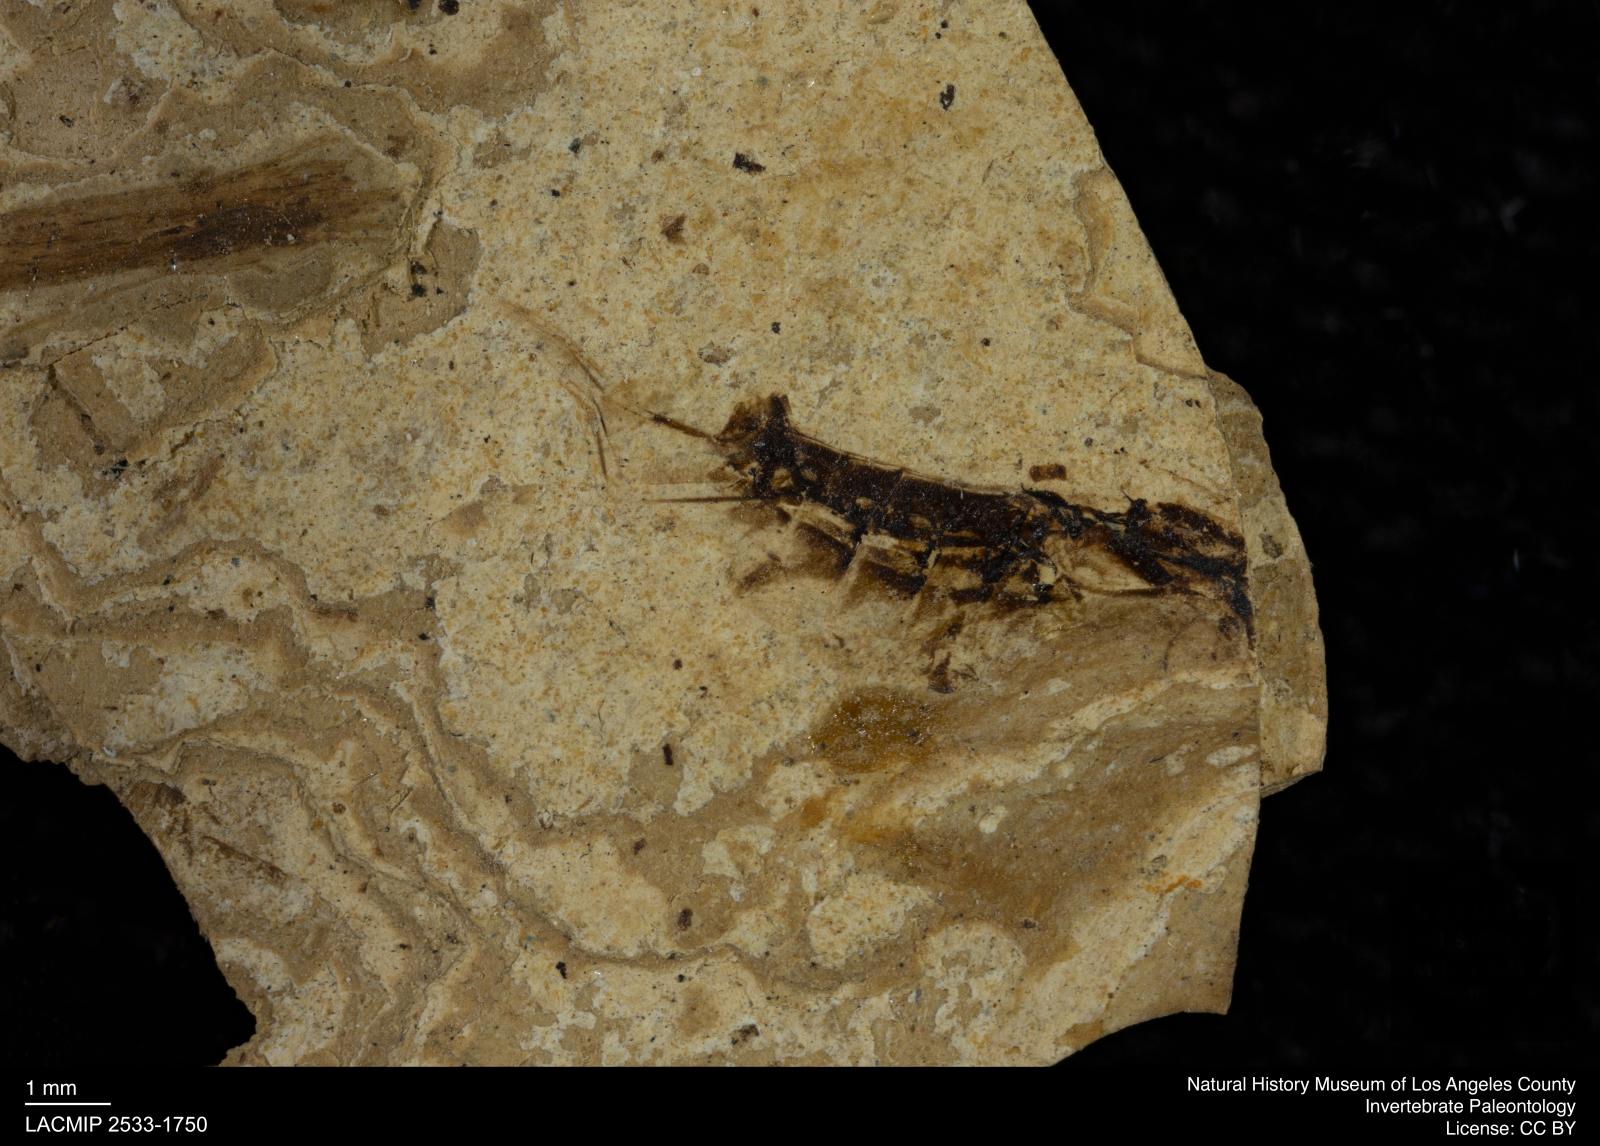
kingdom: Animalia
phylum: Arthropoda
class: Insecta
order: Hemiptera
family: Notonectidae
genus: Notonecta
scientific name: Notonecta
